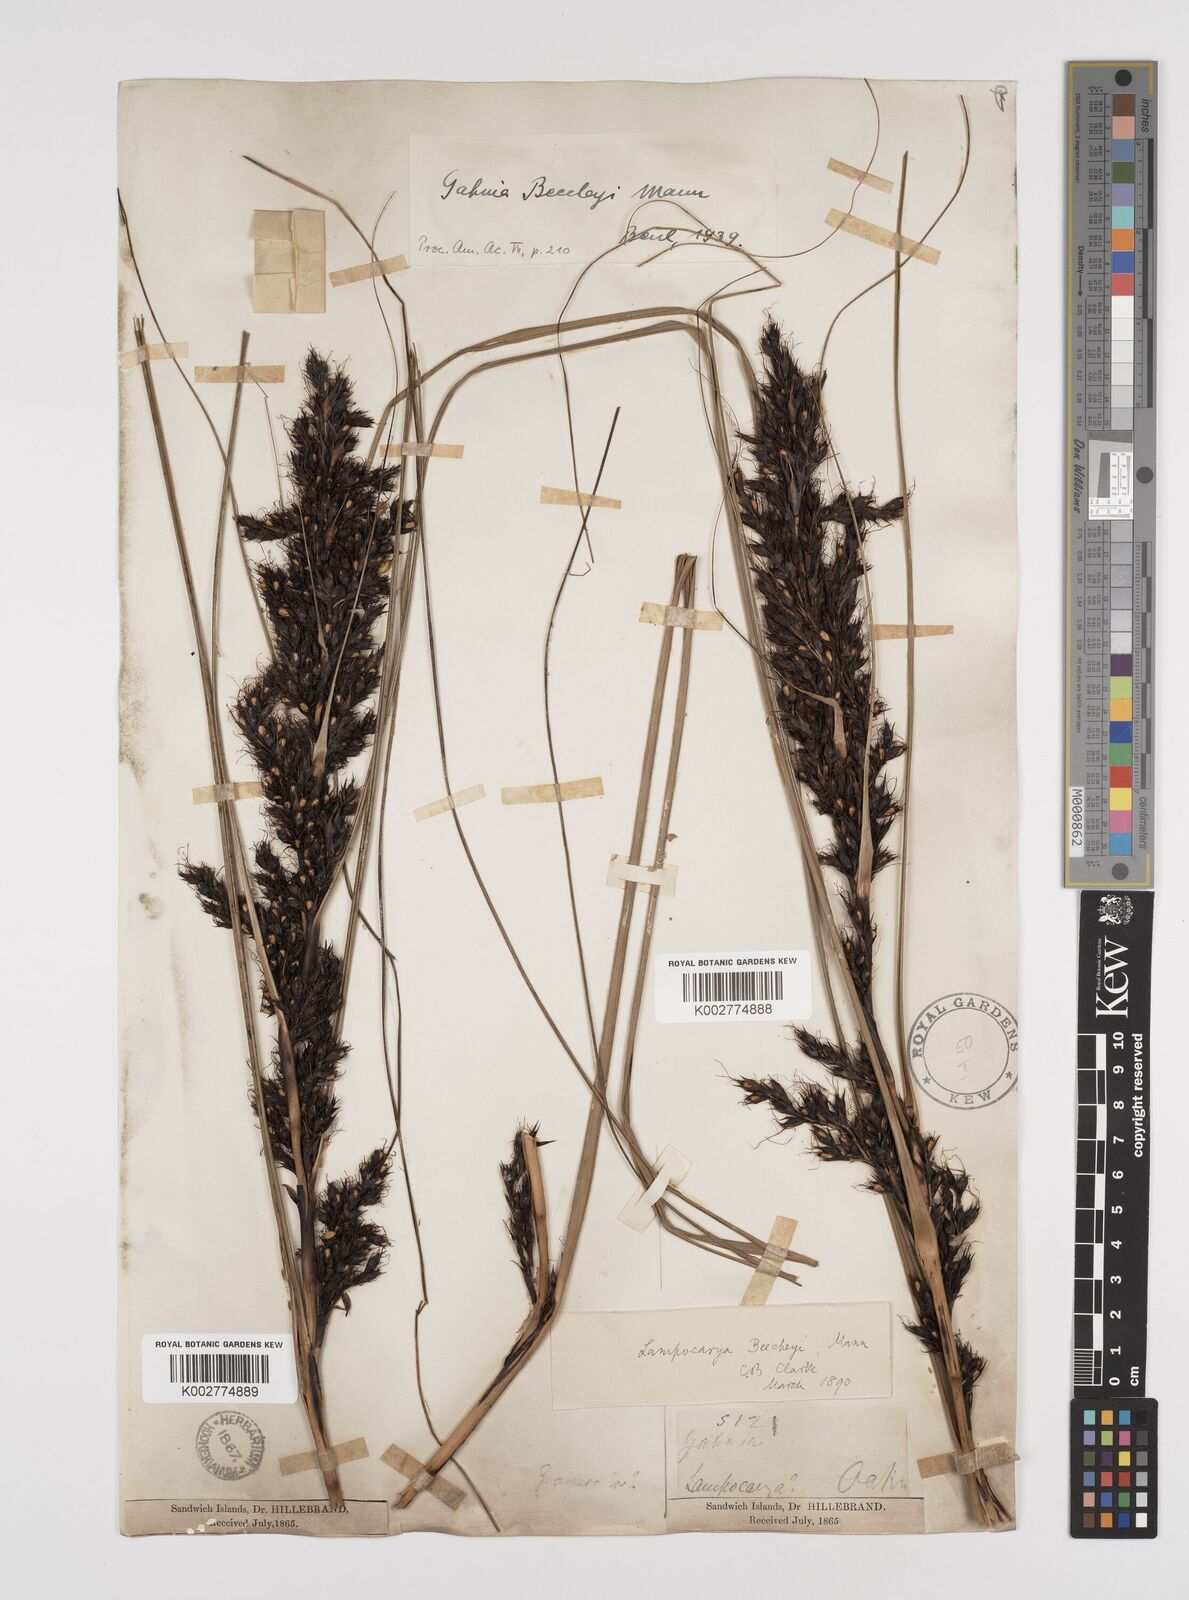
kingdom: Plantae
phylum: Tracheophyta
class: Liliopsida
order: Poales
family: Cyperaceae
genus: Gahnia
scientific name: Gahnia beecheyi
